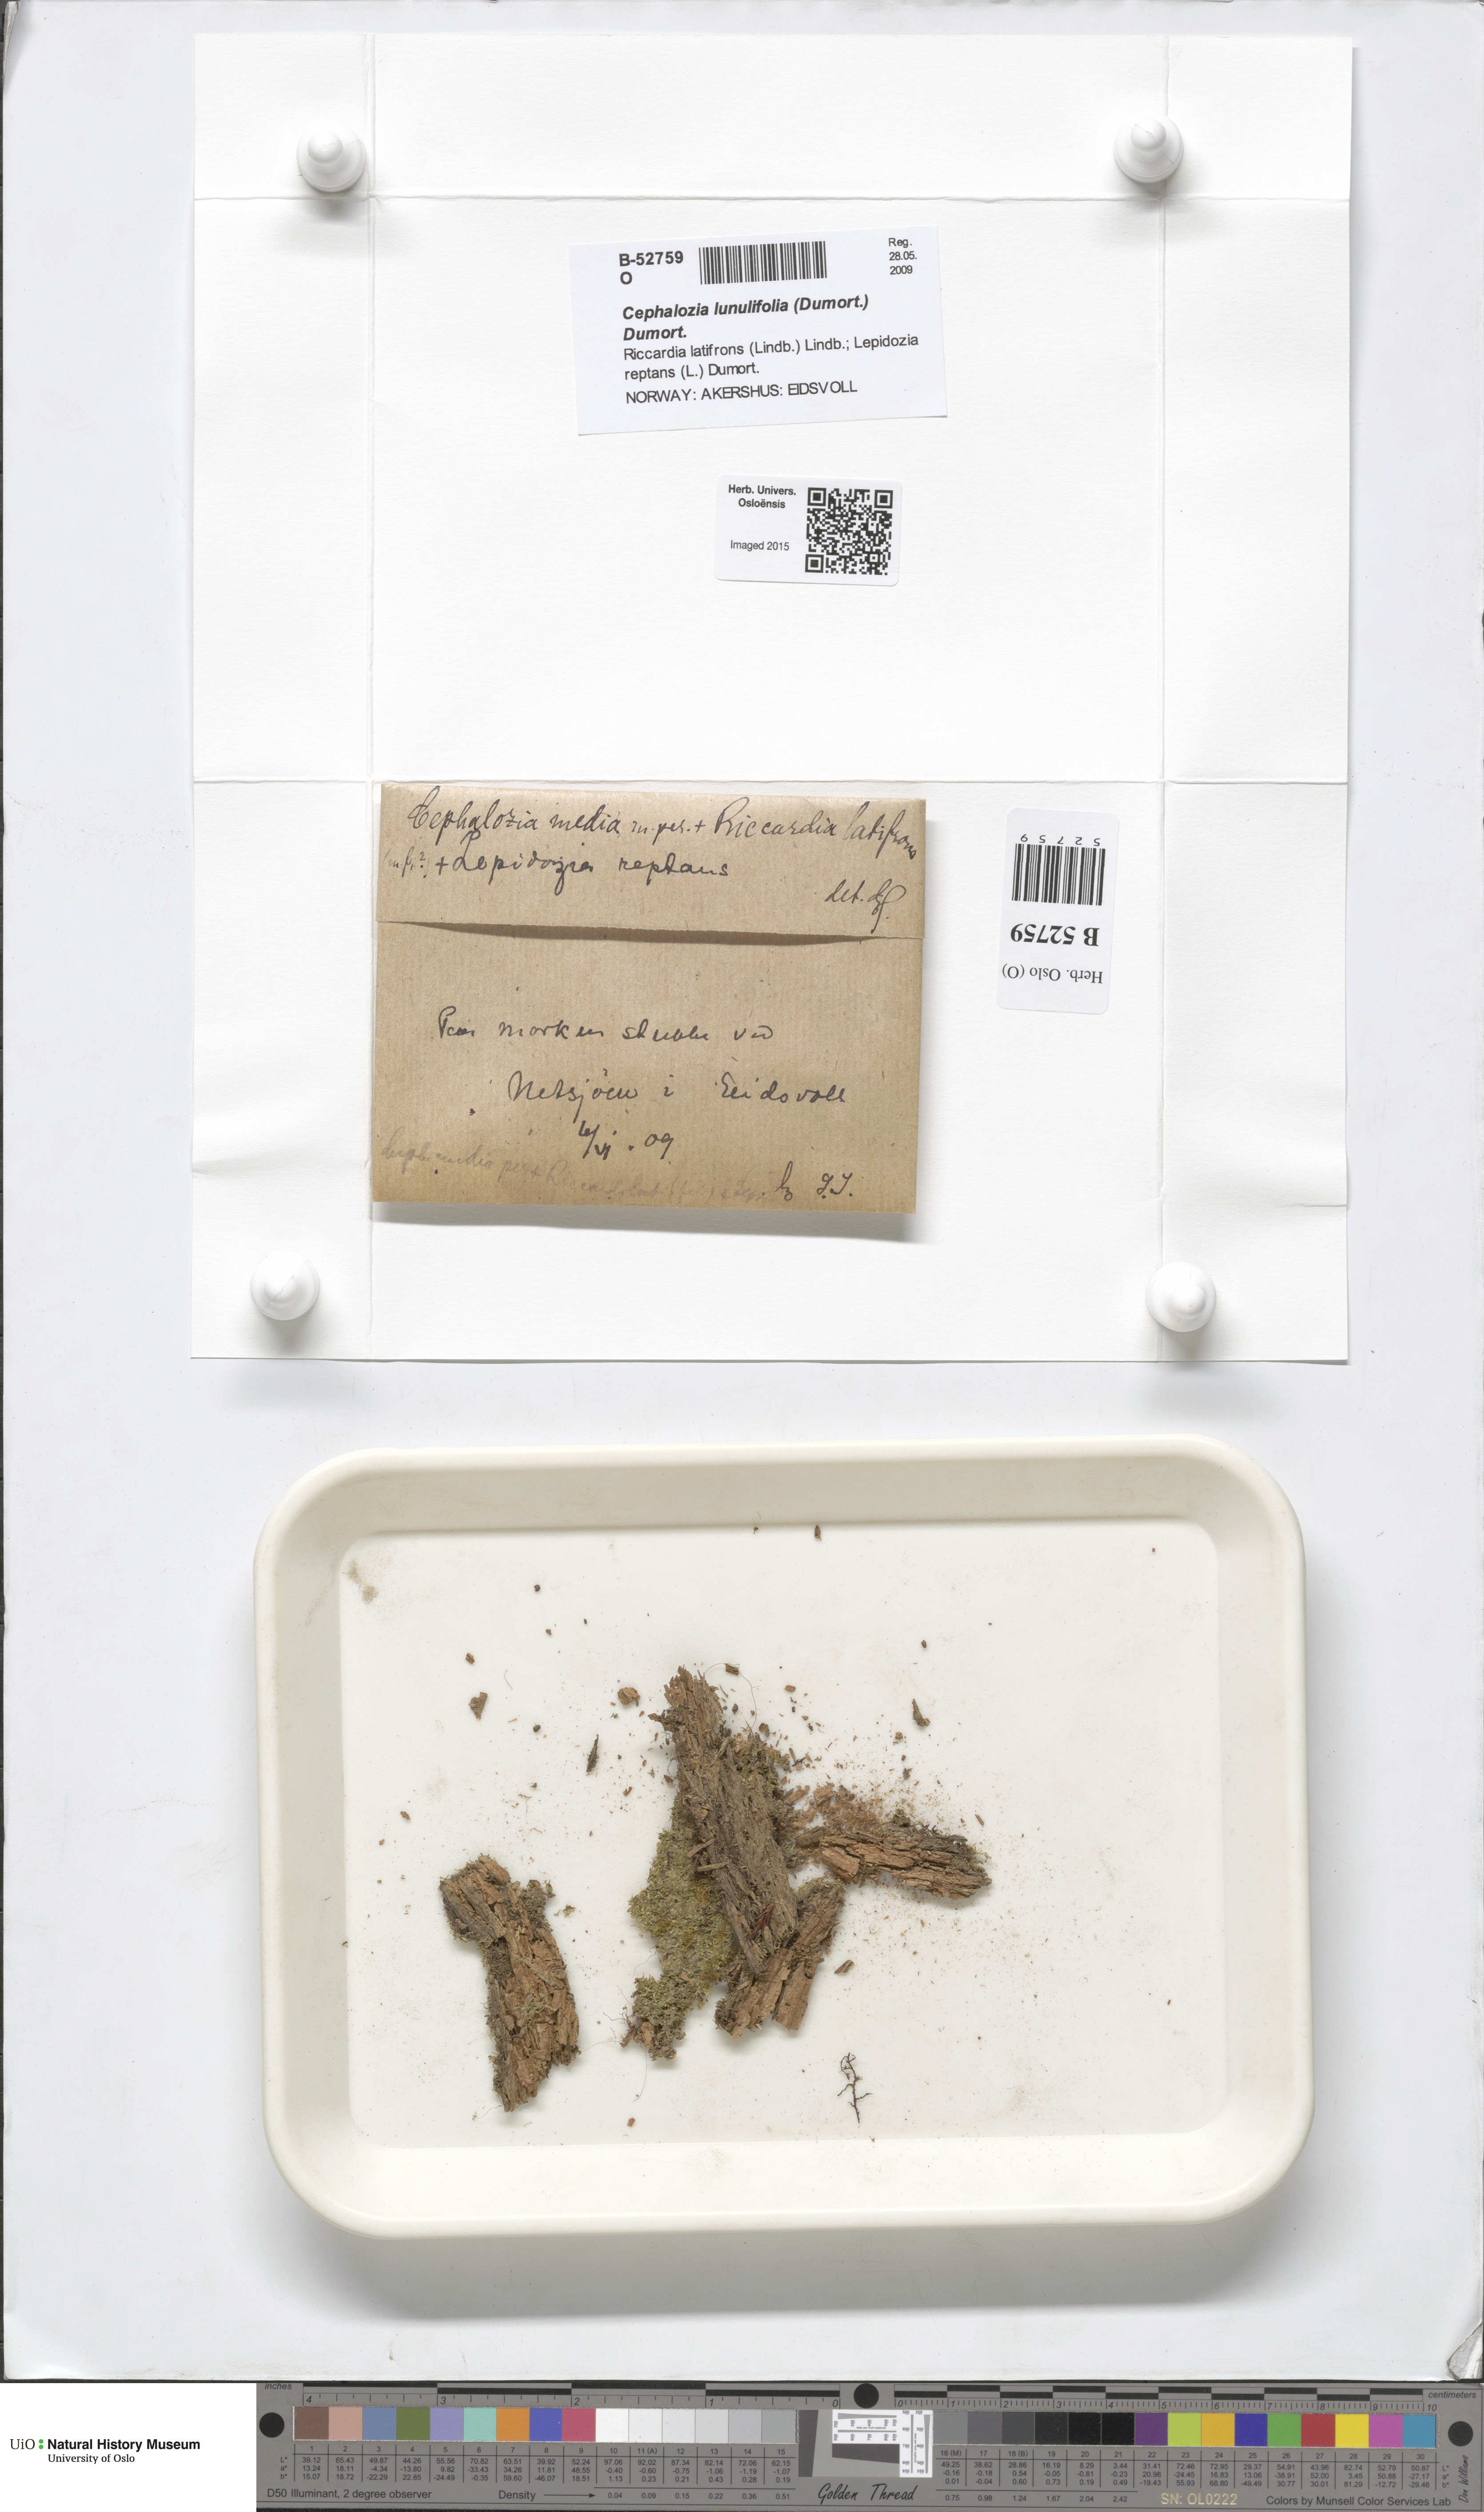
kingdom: Plantae
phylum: Marchantiophyta
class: Jungermanniopsida
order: Jungermanniales
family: Cephaloziaceae
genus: Fuscocephaloziopsis
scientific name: Fuscocephaloziopsis lunulifolia
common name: Moon-leaved pincerwort
